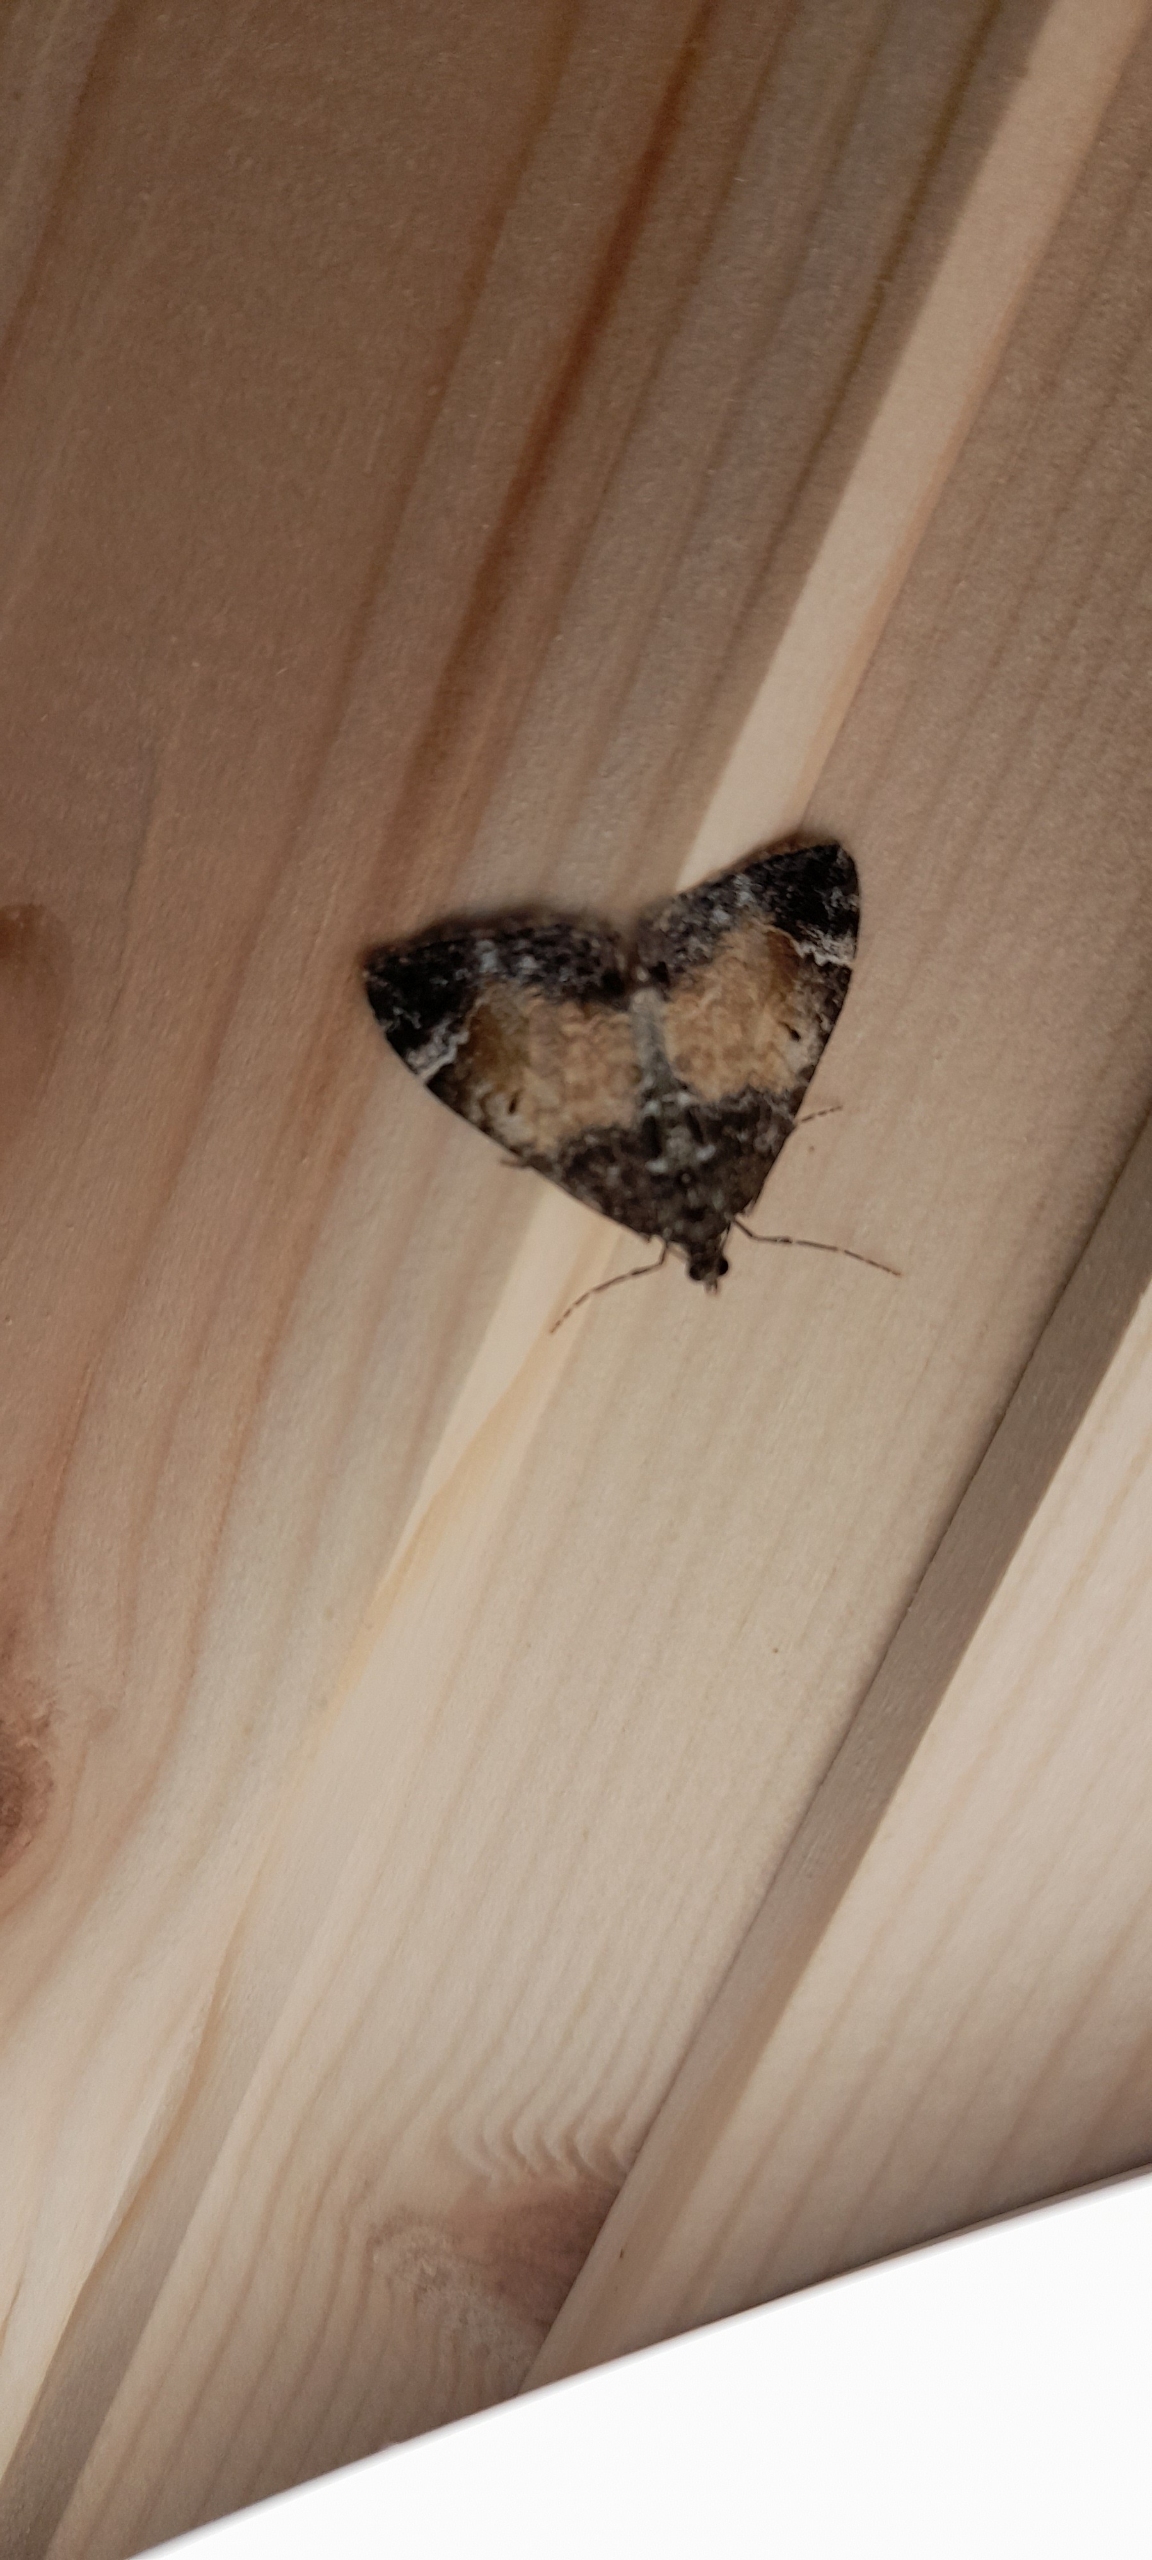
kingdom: Animalia
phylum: Arthropoda
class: Insecta
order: Lepidoptera
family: Geometridae
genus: Dysstroma
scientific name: Dysstroma truncata
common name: Jordbær-bladmåler
